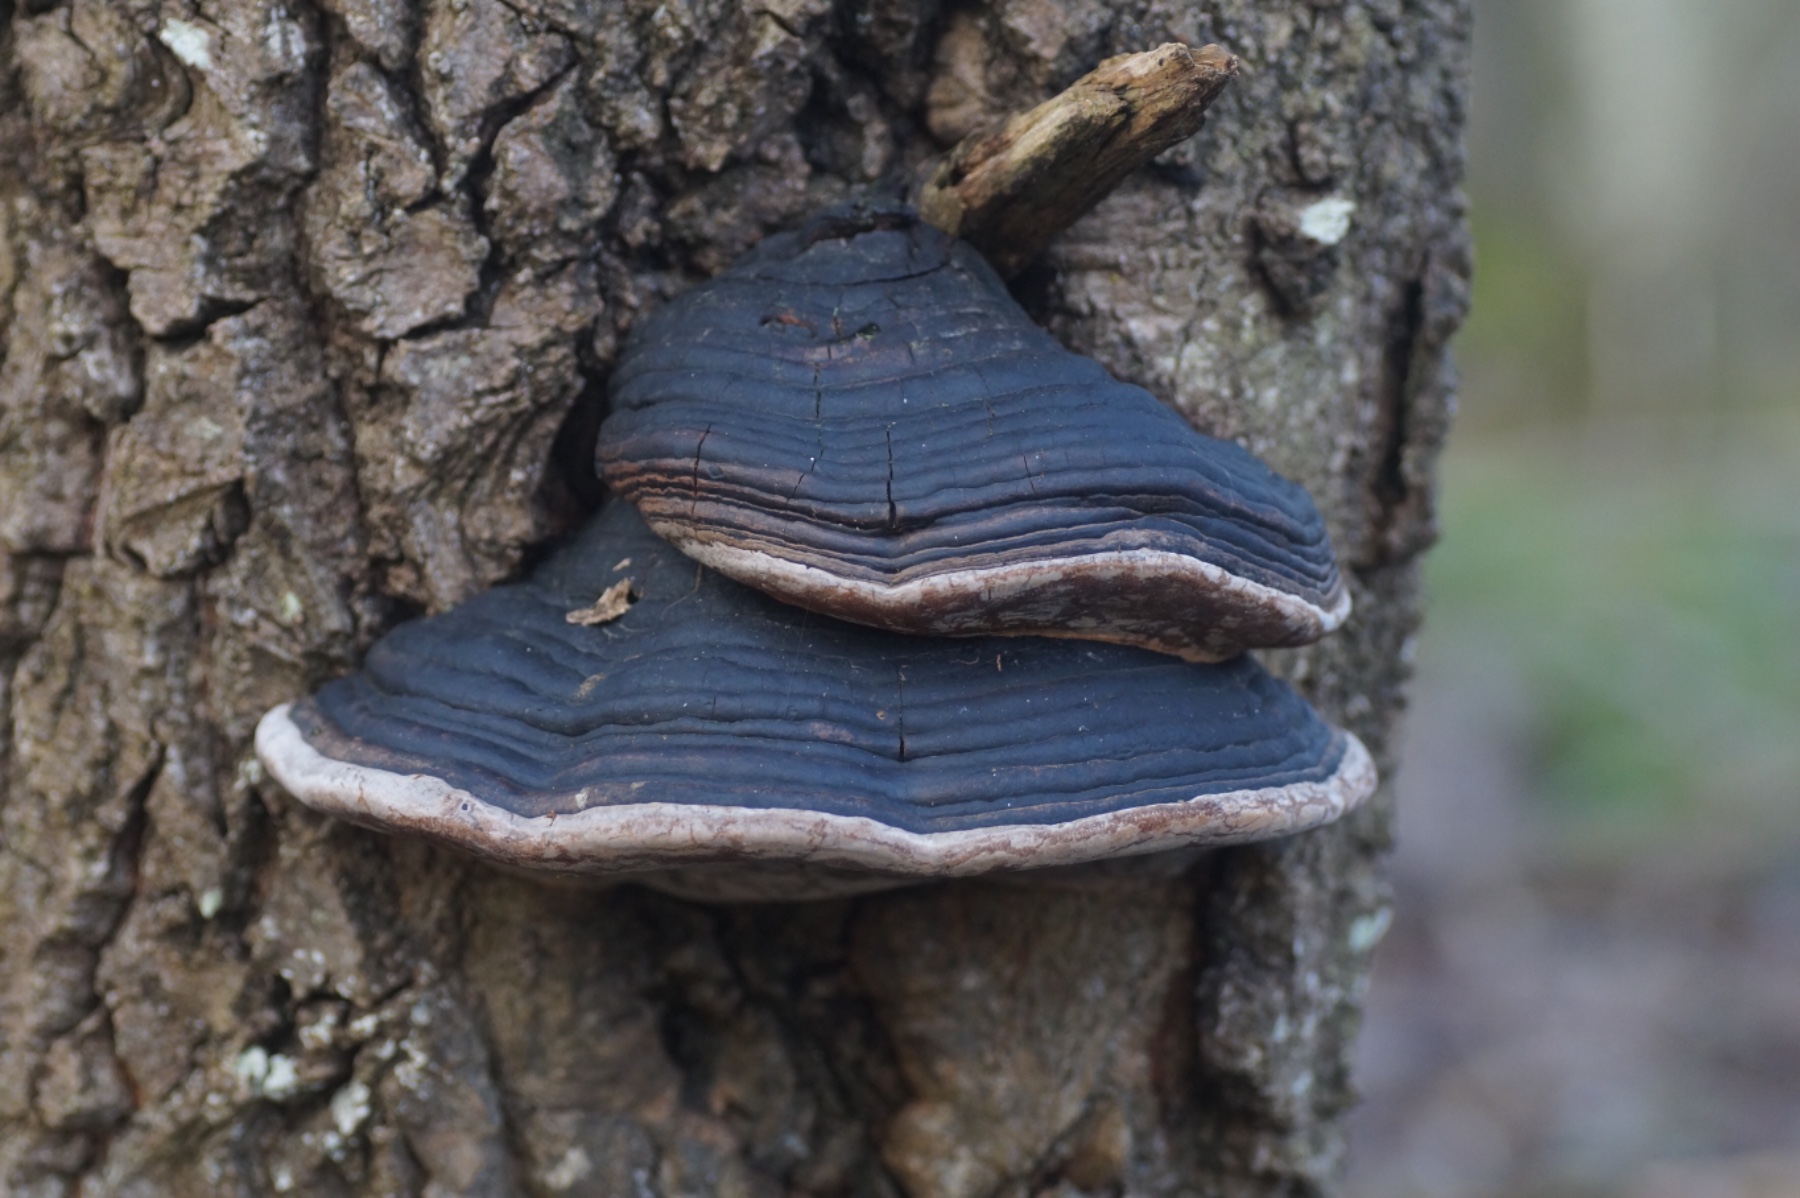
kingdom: Fungi
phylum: Basidiomycota
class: Agaricomycetes
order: Hymenochaetales
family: Hymenochaetaceae
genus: Phellinus
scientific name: Phellinus populicola
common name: poppel-ildporesvamp
